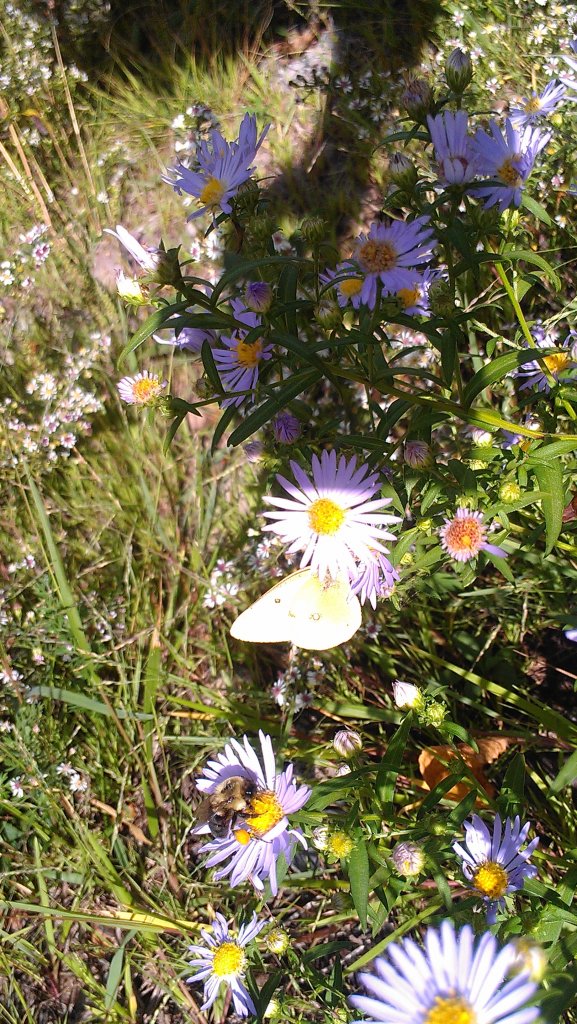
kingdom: Animalia
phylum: Arthropoda
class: Insecta
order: Lepidoptera
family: Pieridae
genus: Colias
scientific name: Colias philodice
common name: Clouded Sulphur
